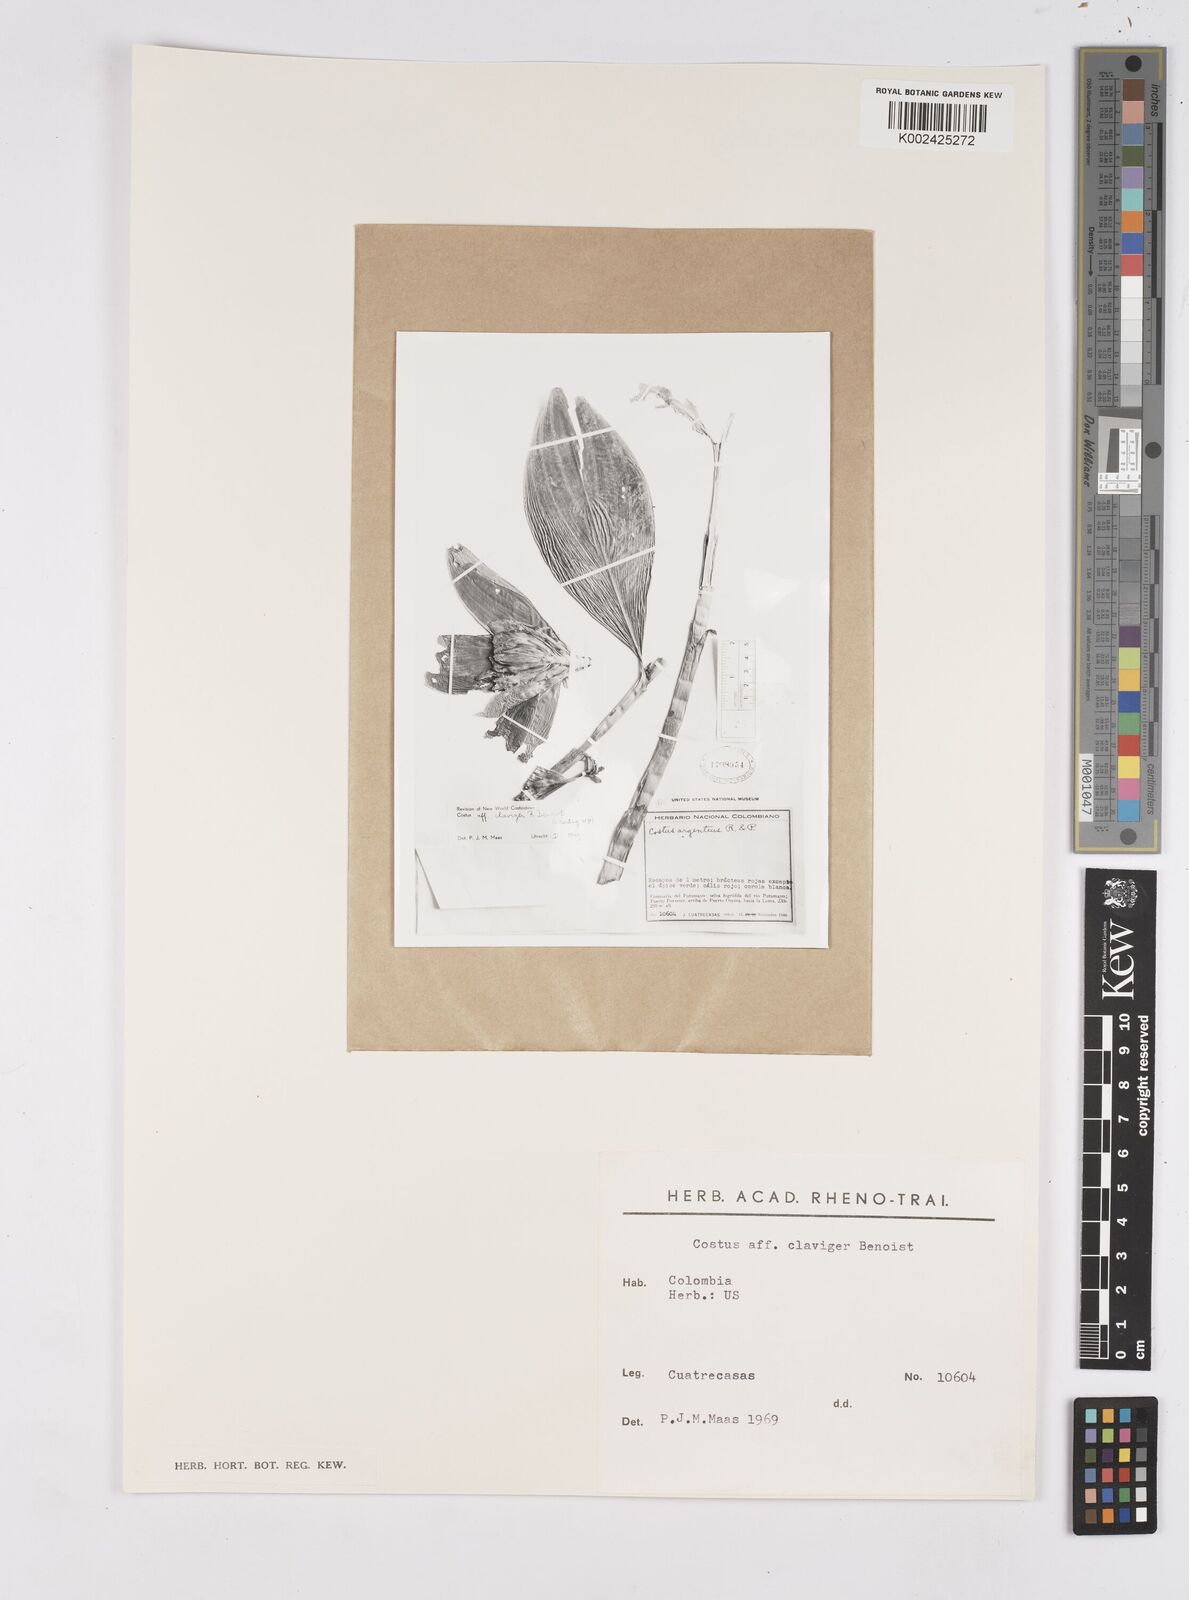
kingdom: Plantae
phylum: Tracheophyta
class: Liliopsida
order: Zingiberales
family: Costaceae
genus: Costus
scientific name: Costus claviger
